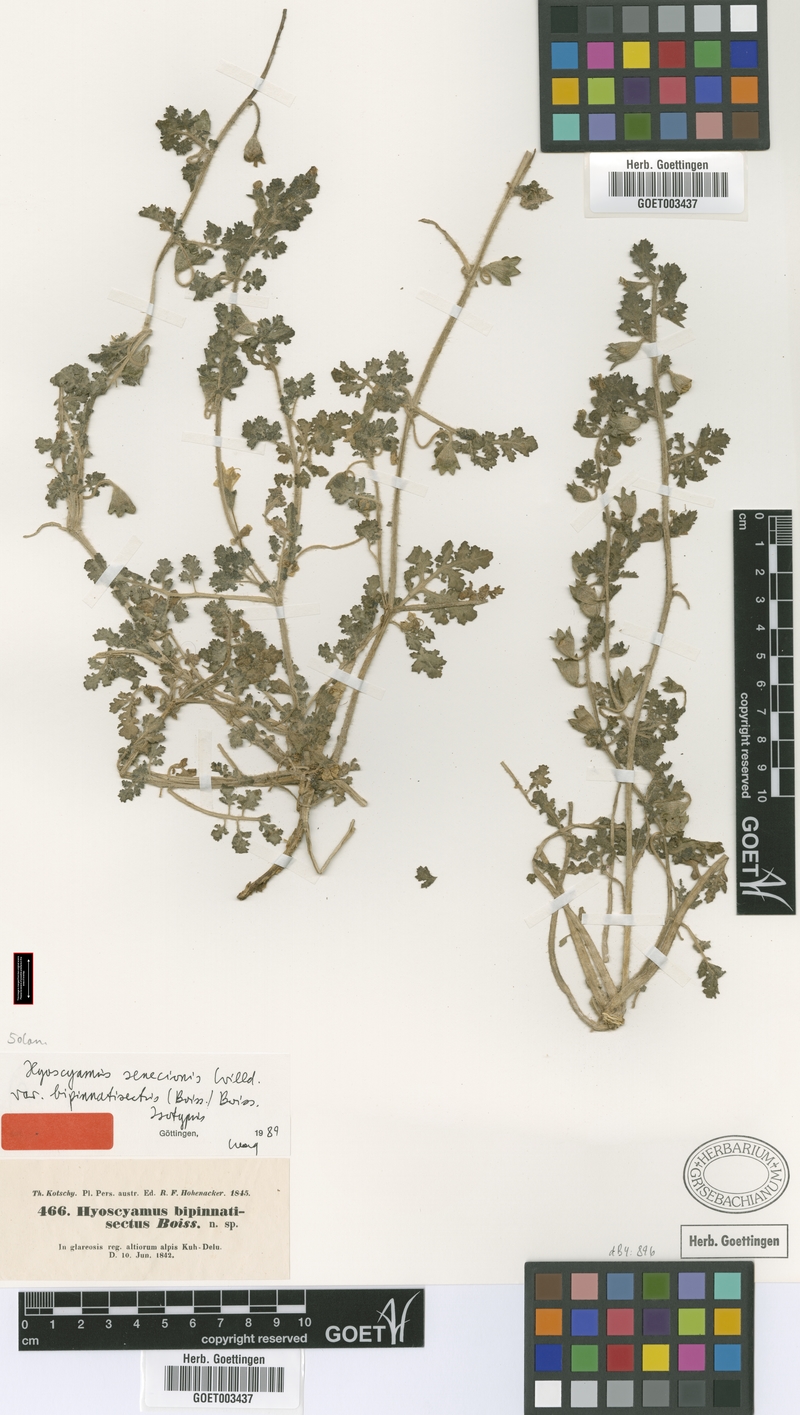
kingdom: Plantae
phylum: Tracheophyta
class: Magnoliopsida
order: Solanales
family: Solanaceae
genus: Hyoscyamus
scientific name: Hyoscyamus senecionis
